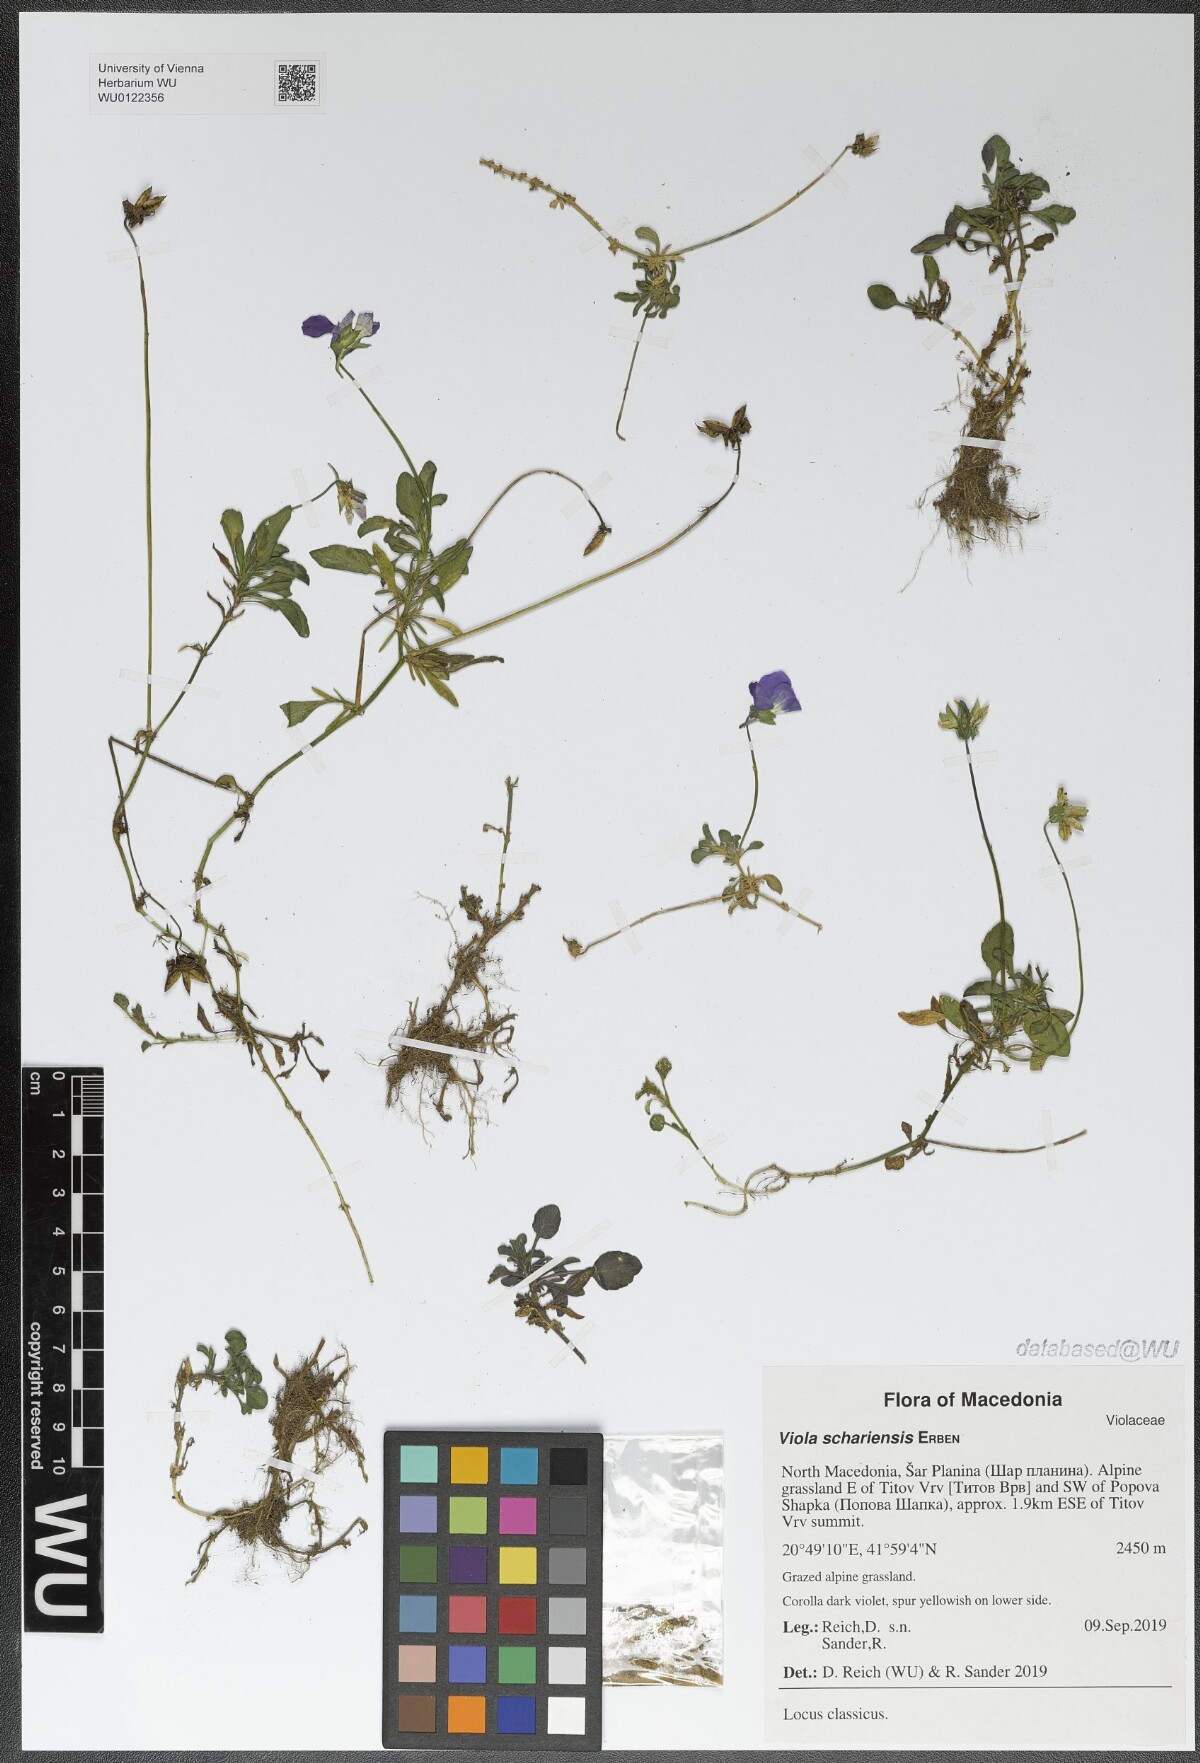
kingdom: Plantae
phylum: Tracheophyta
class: Magnoliopsida
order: Malpighiales
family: Violaceae
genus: Viola
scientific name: Viola schariensis
